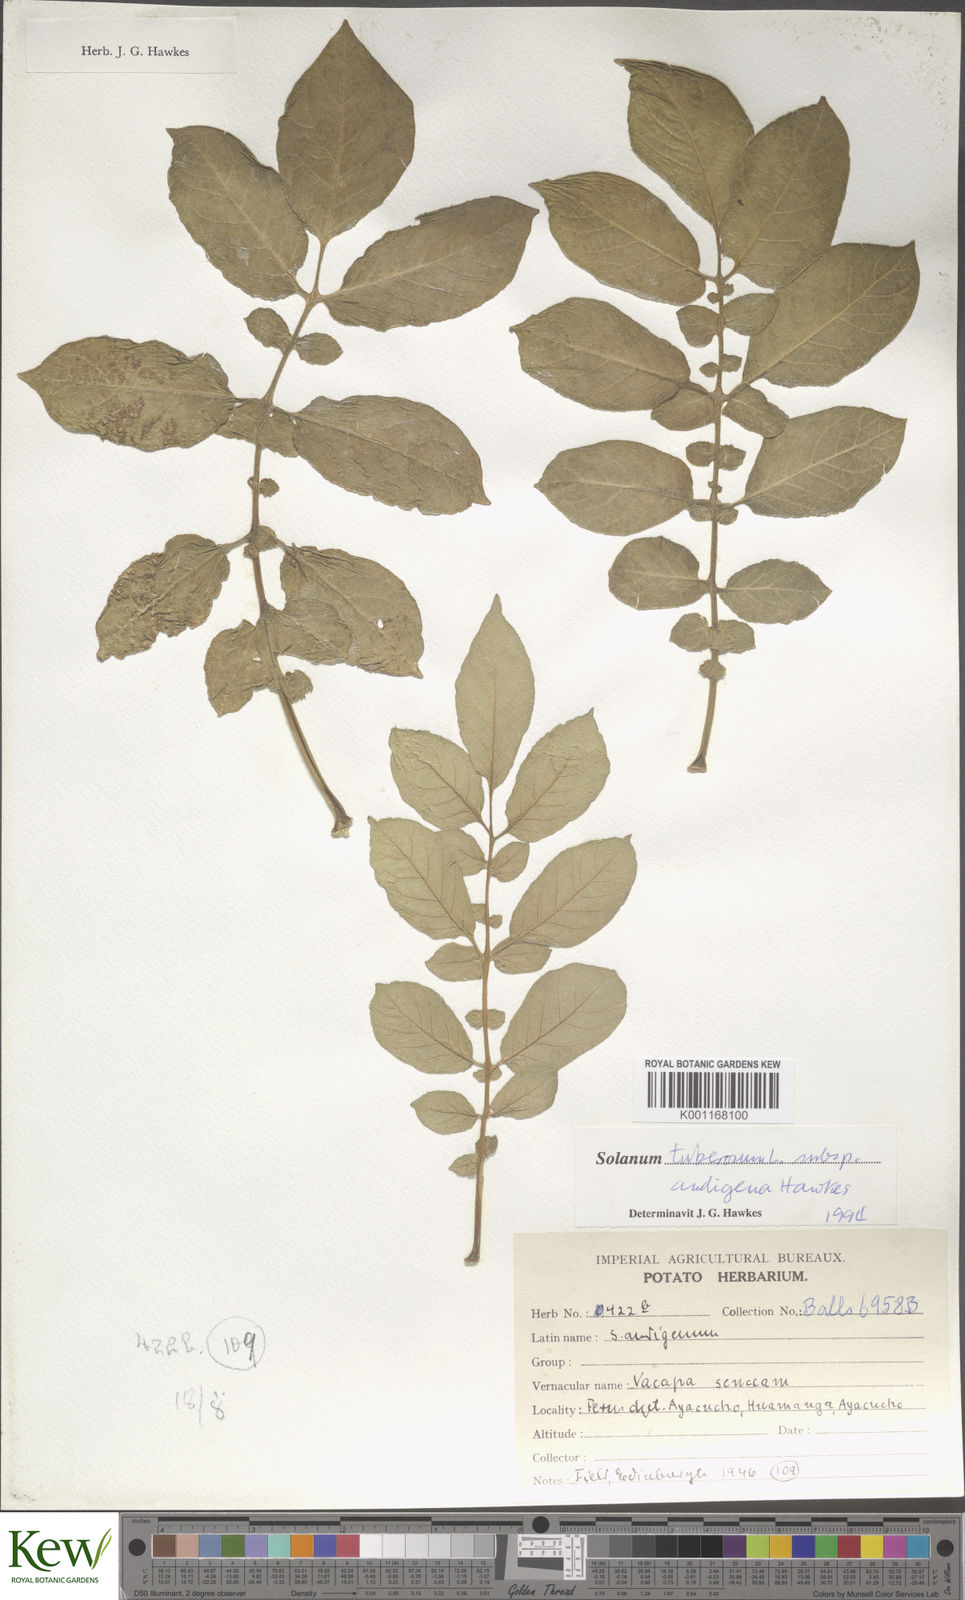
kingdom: Plantae
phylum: Tracheophyta
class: Magnoliopsida
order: Solanales
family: Solanaceae
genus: Solanum
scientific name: Solanum tuberosum
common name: Potato
